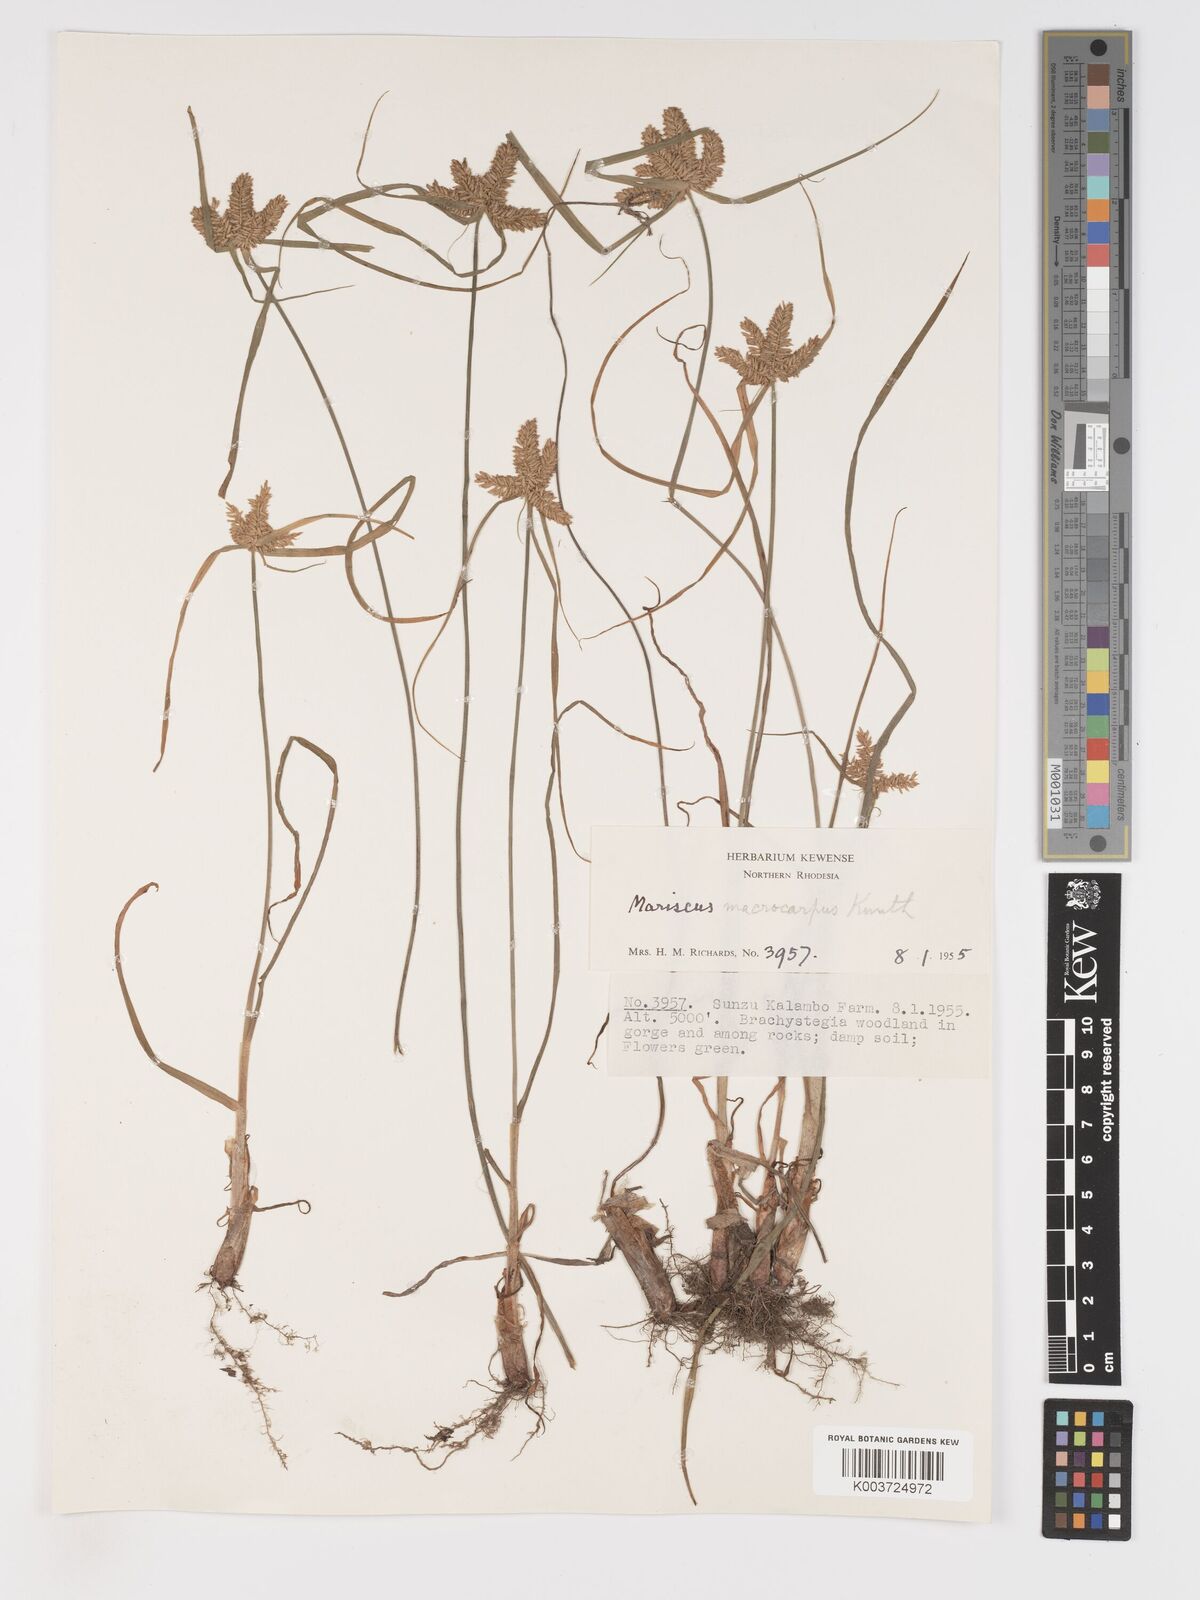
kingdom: Plantae
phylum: Tracheophyta
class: Liliopsida
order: Poales
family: Cyperaceae
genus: Cyperus
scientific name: Cyperus trigonellus
